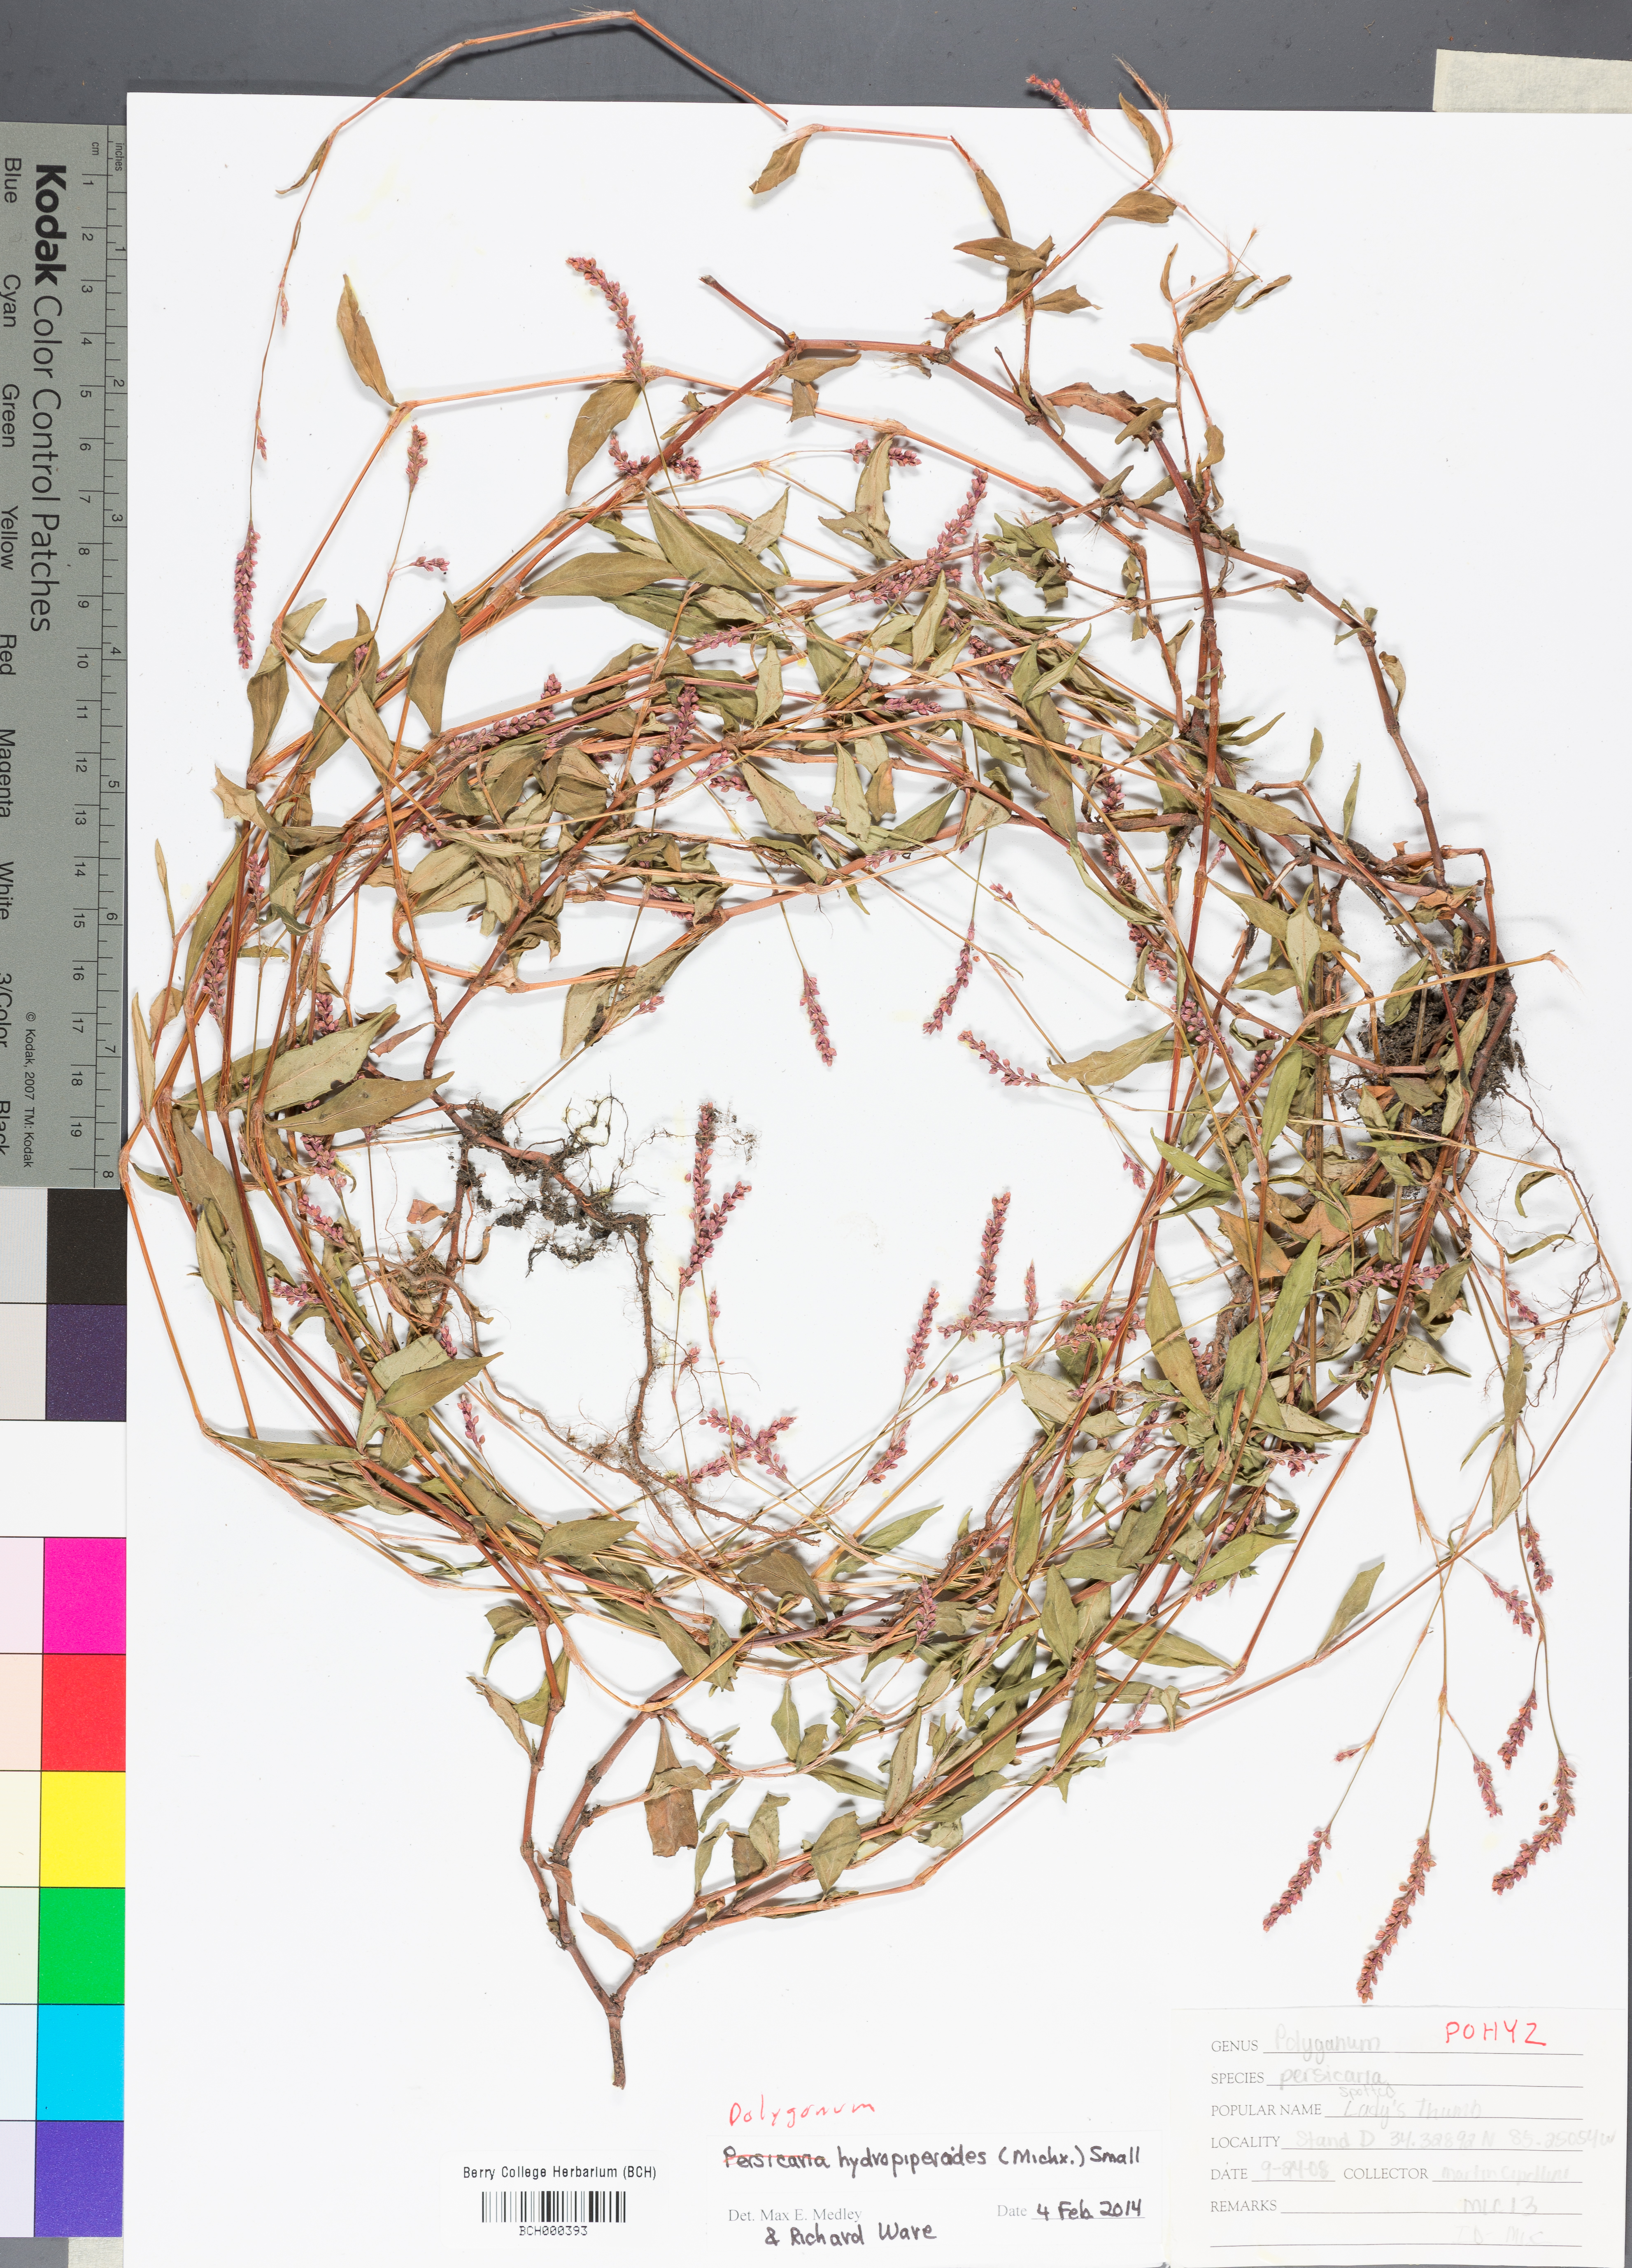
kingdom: Plantae
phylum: Tracheophyta
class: Magnoliopsida
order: Caryophyllales
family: Polygonaceae
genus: Persicaria
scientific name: Persicaria hydropiperoides
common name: Swamp smartweed
